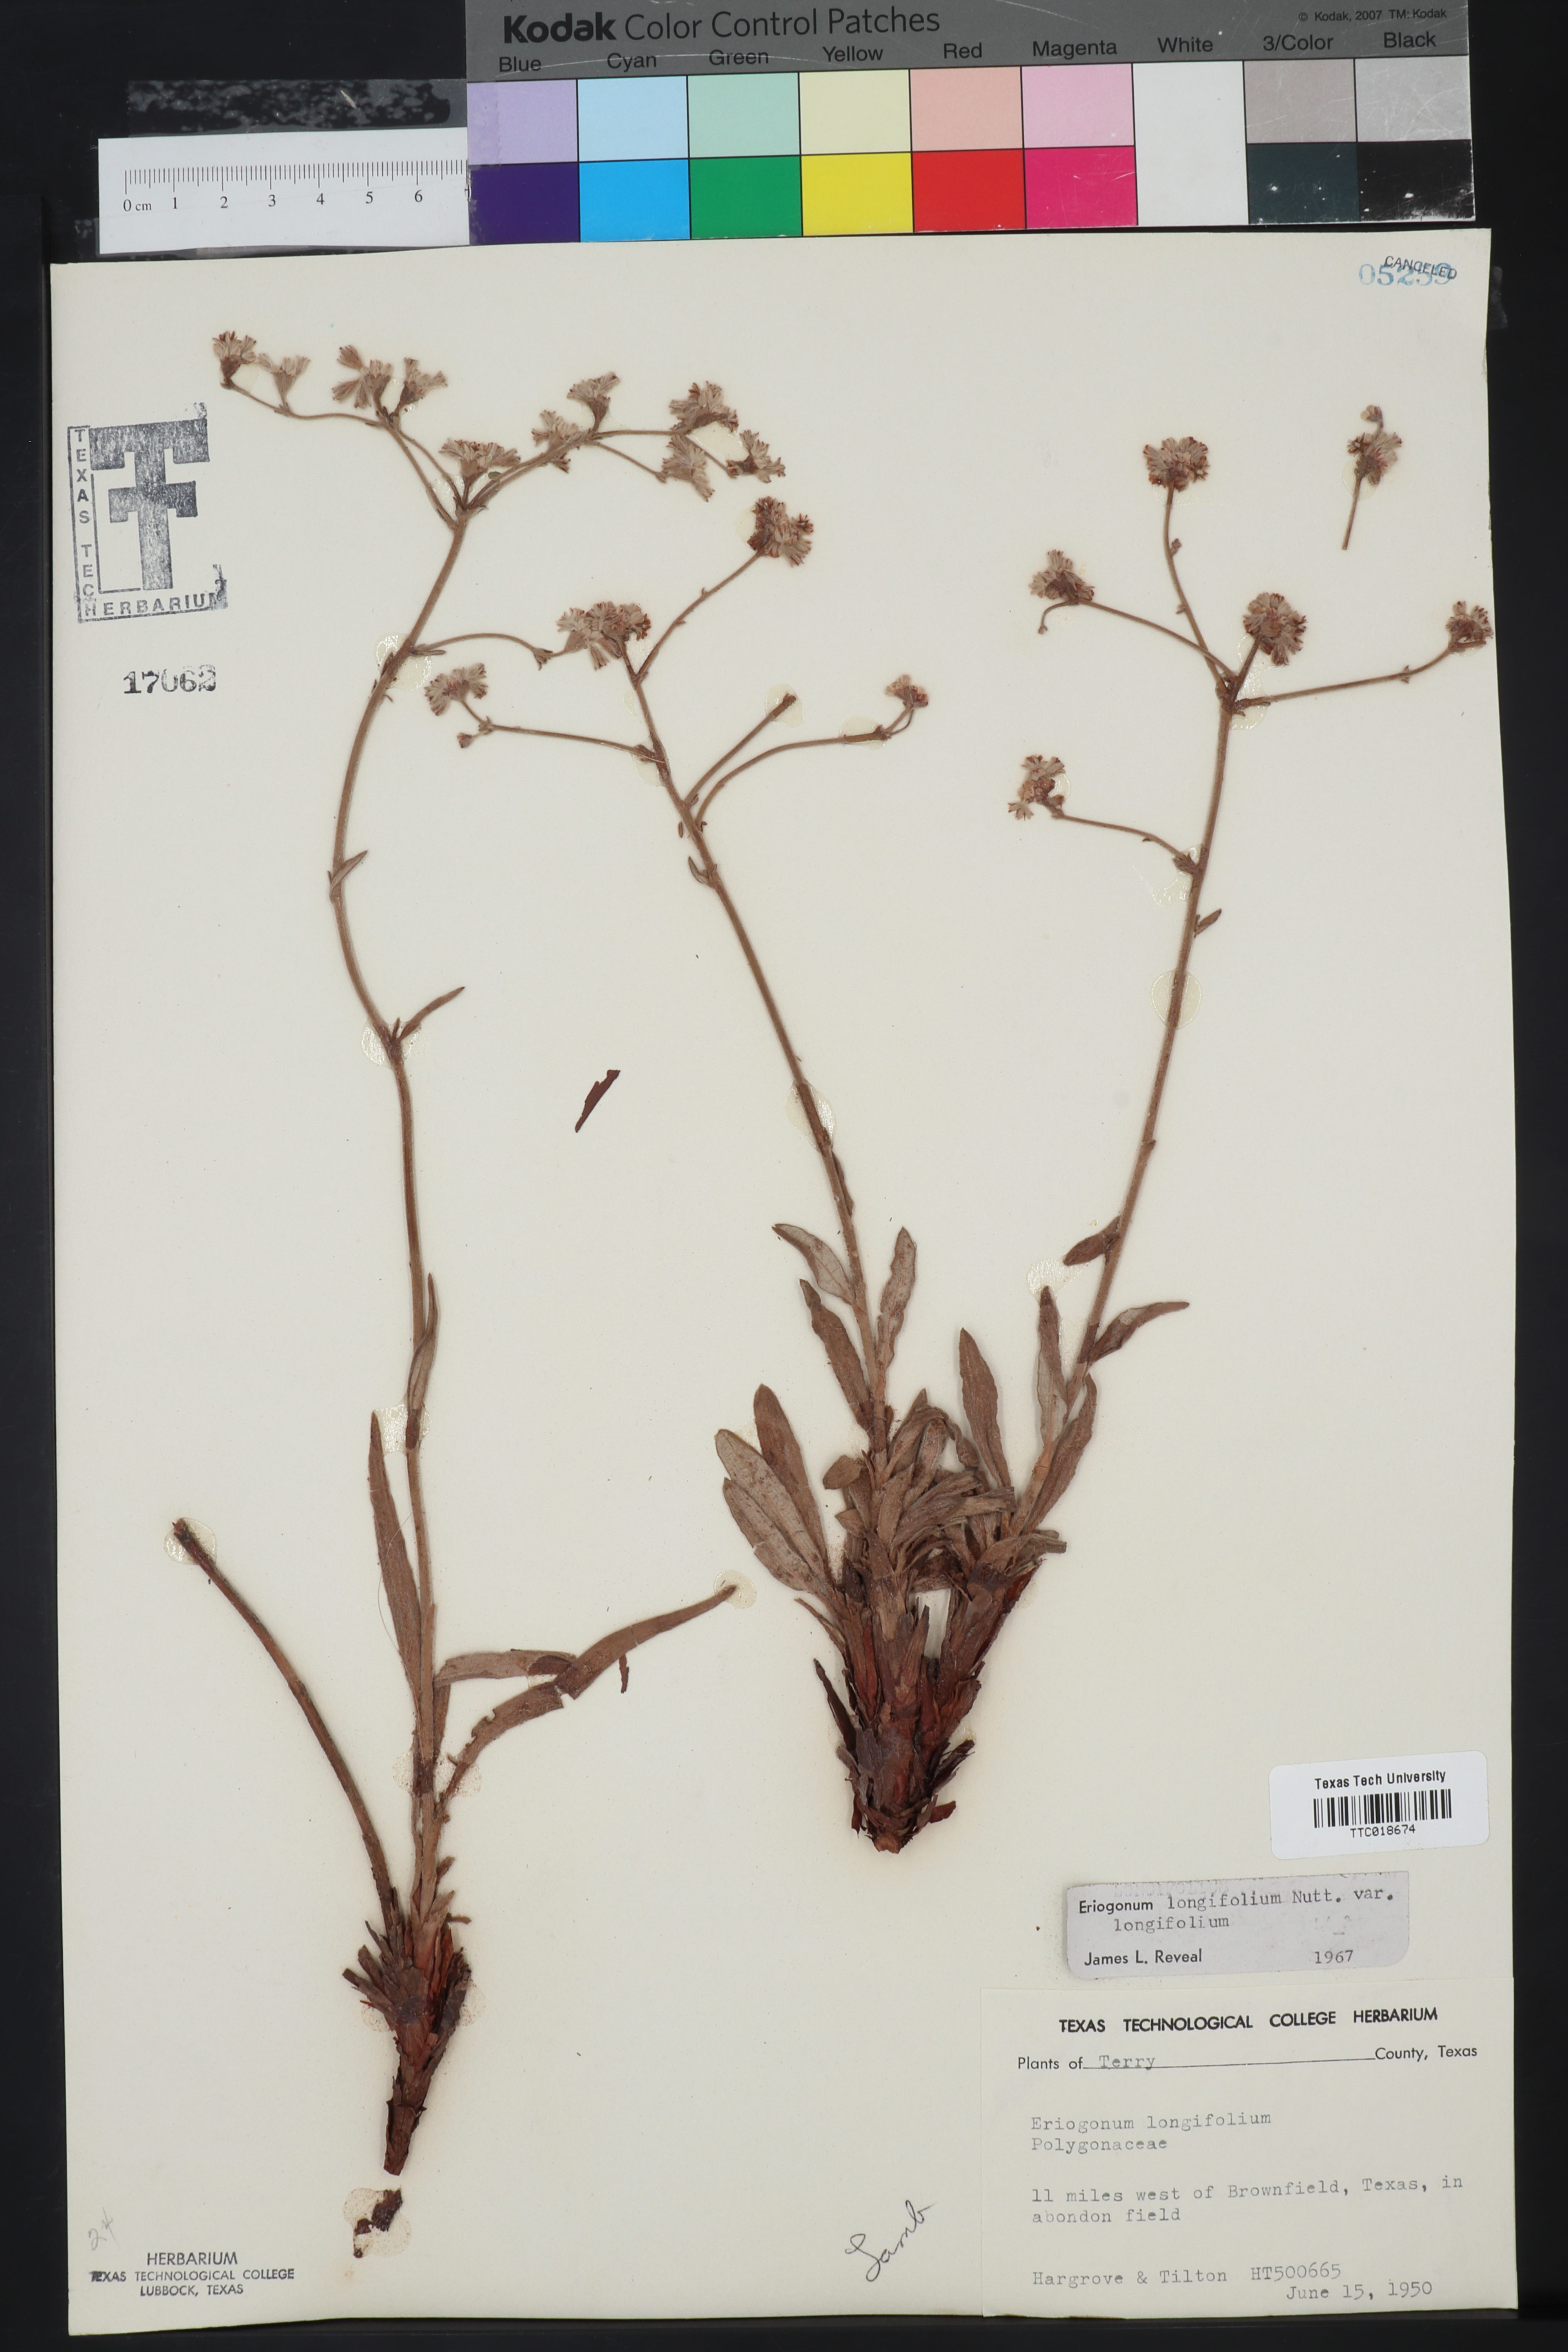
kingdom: Plantae
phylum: Tracheophyta
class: Magnoliopsida
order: Caryophyllales
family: Polygonaceae
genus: Eriogonum
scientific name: Eriogonum longifolium
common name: Longleaf wild buckwheat
